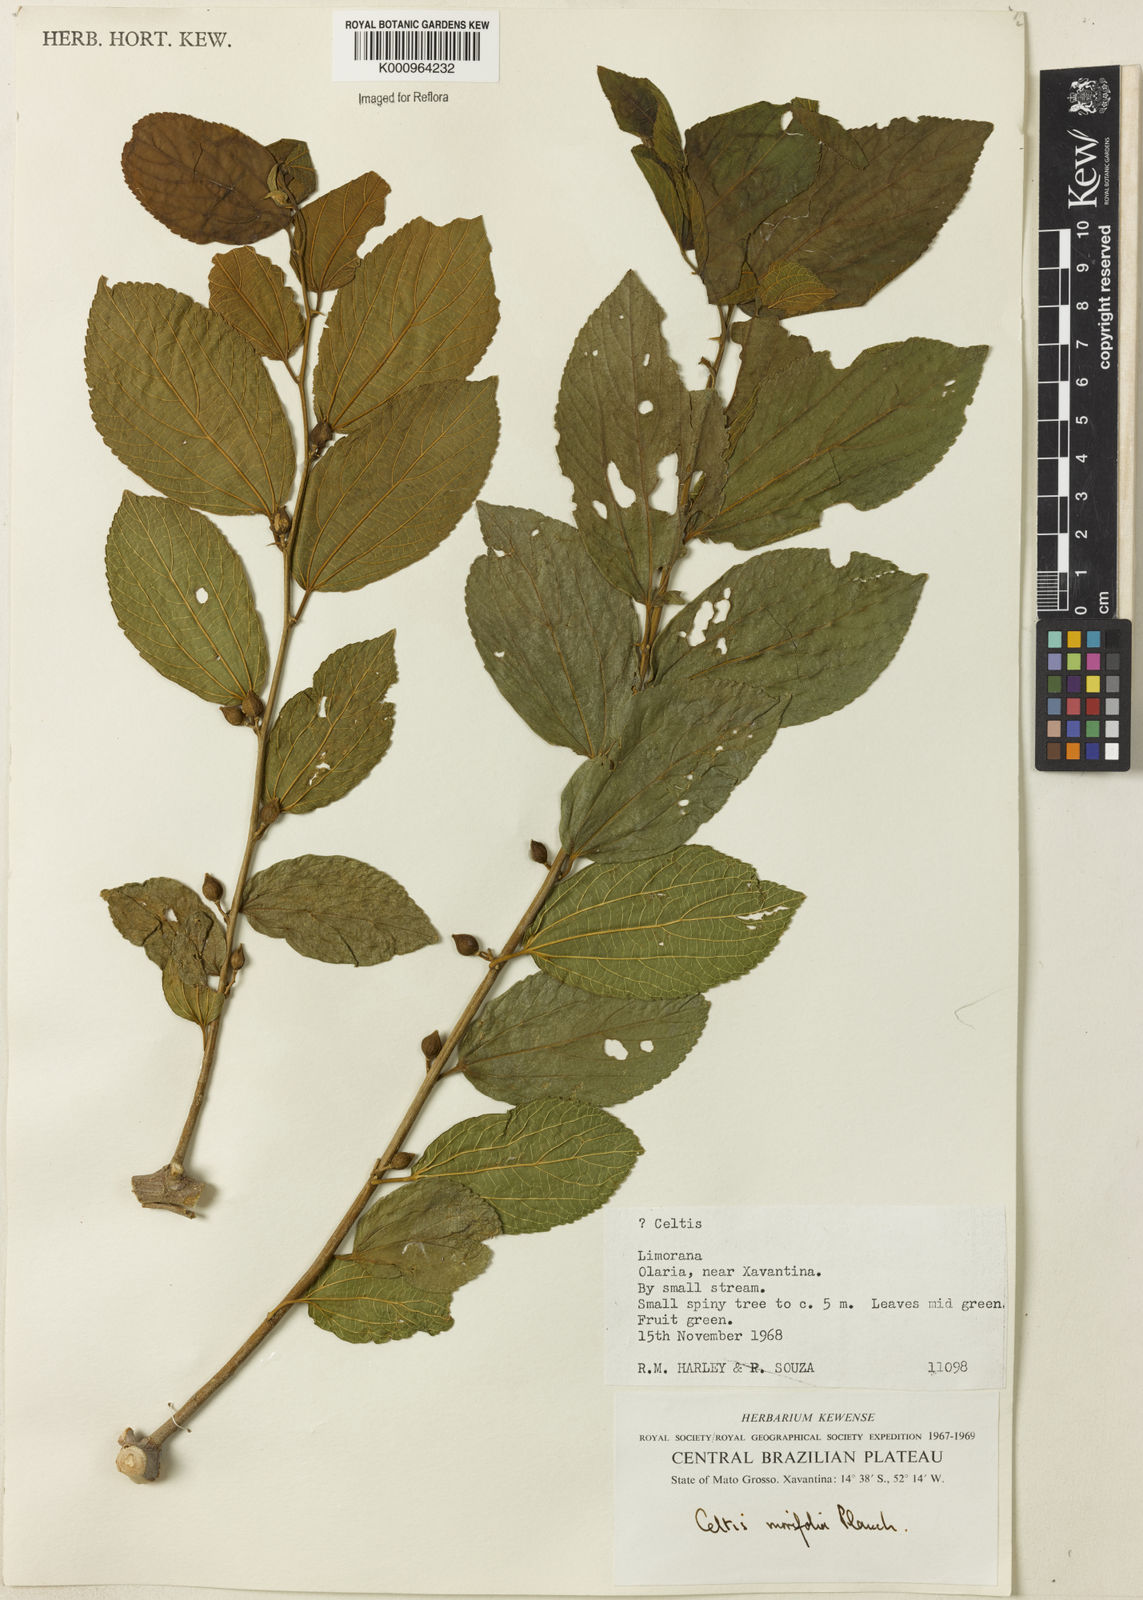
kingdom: Plantae
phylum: Tracheophyta
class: Magnoliopsida
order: Rosales
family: Cannabaceae
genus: Celtis
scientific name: Celtis iguanaea
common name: Iguana hackberry
